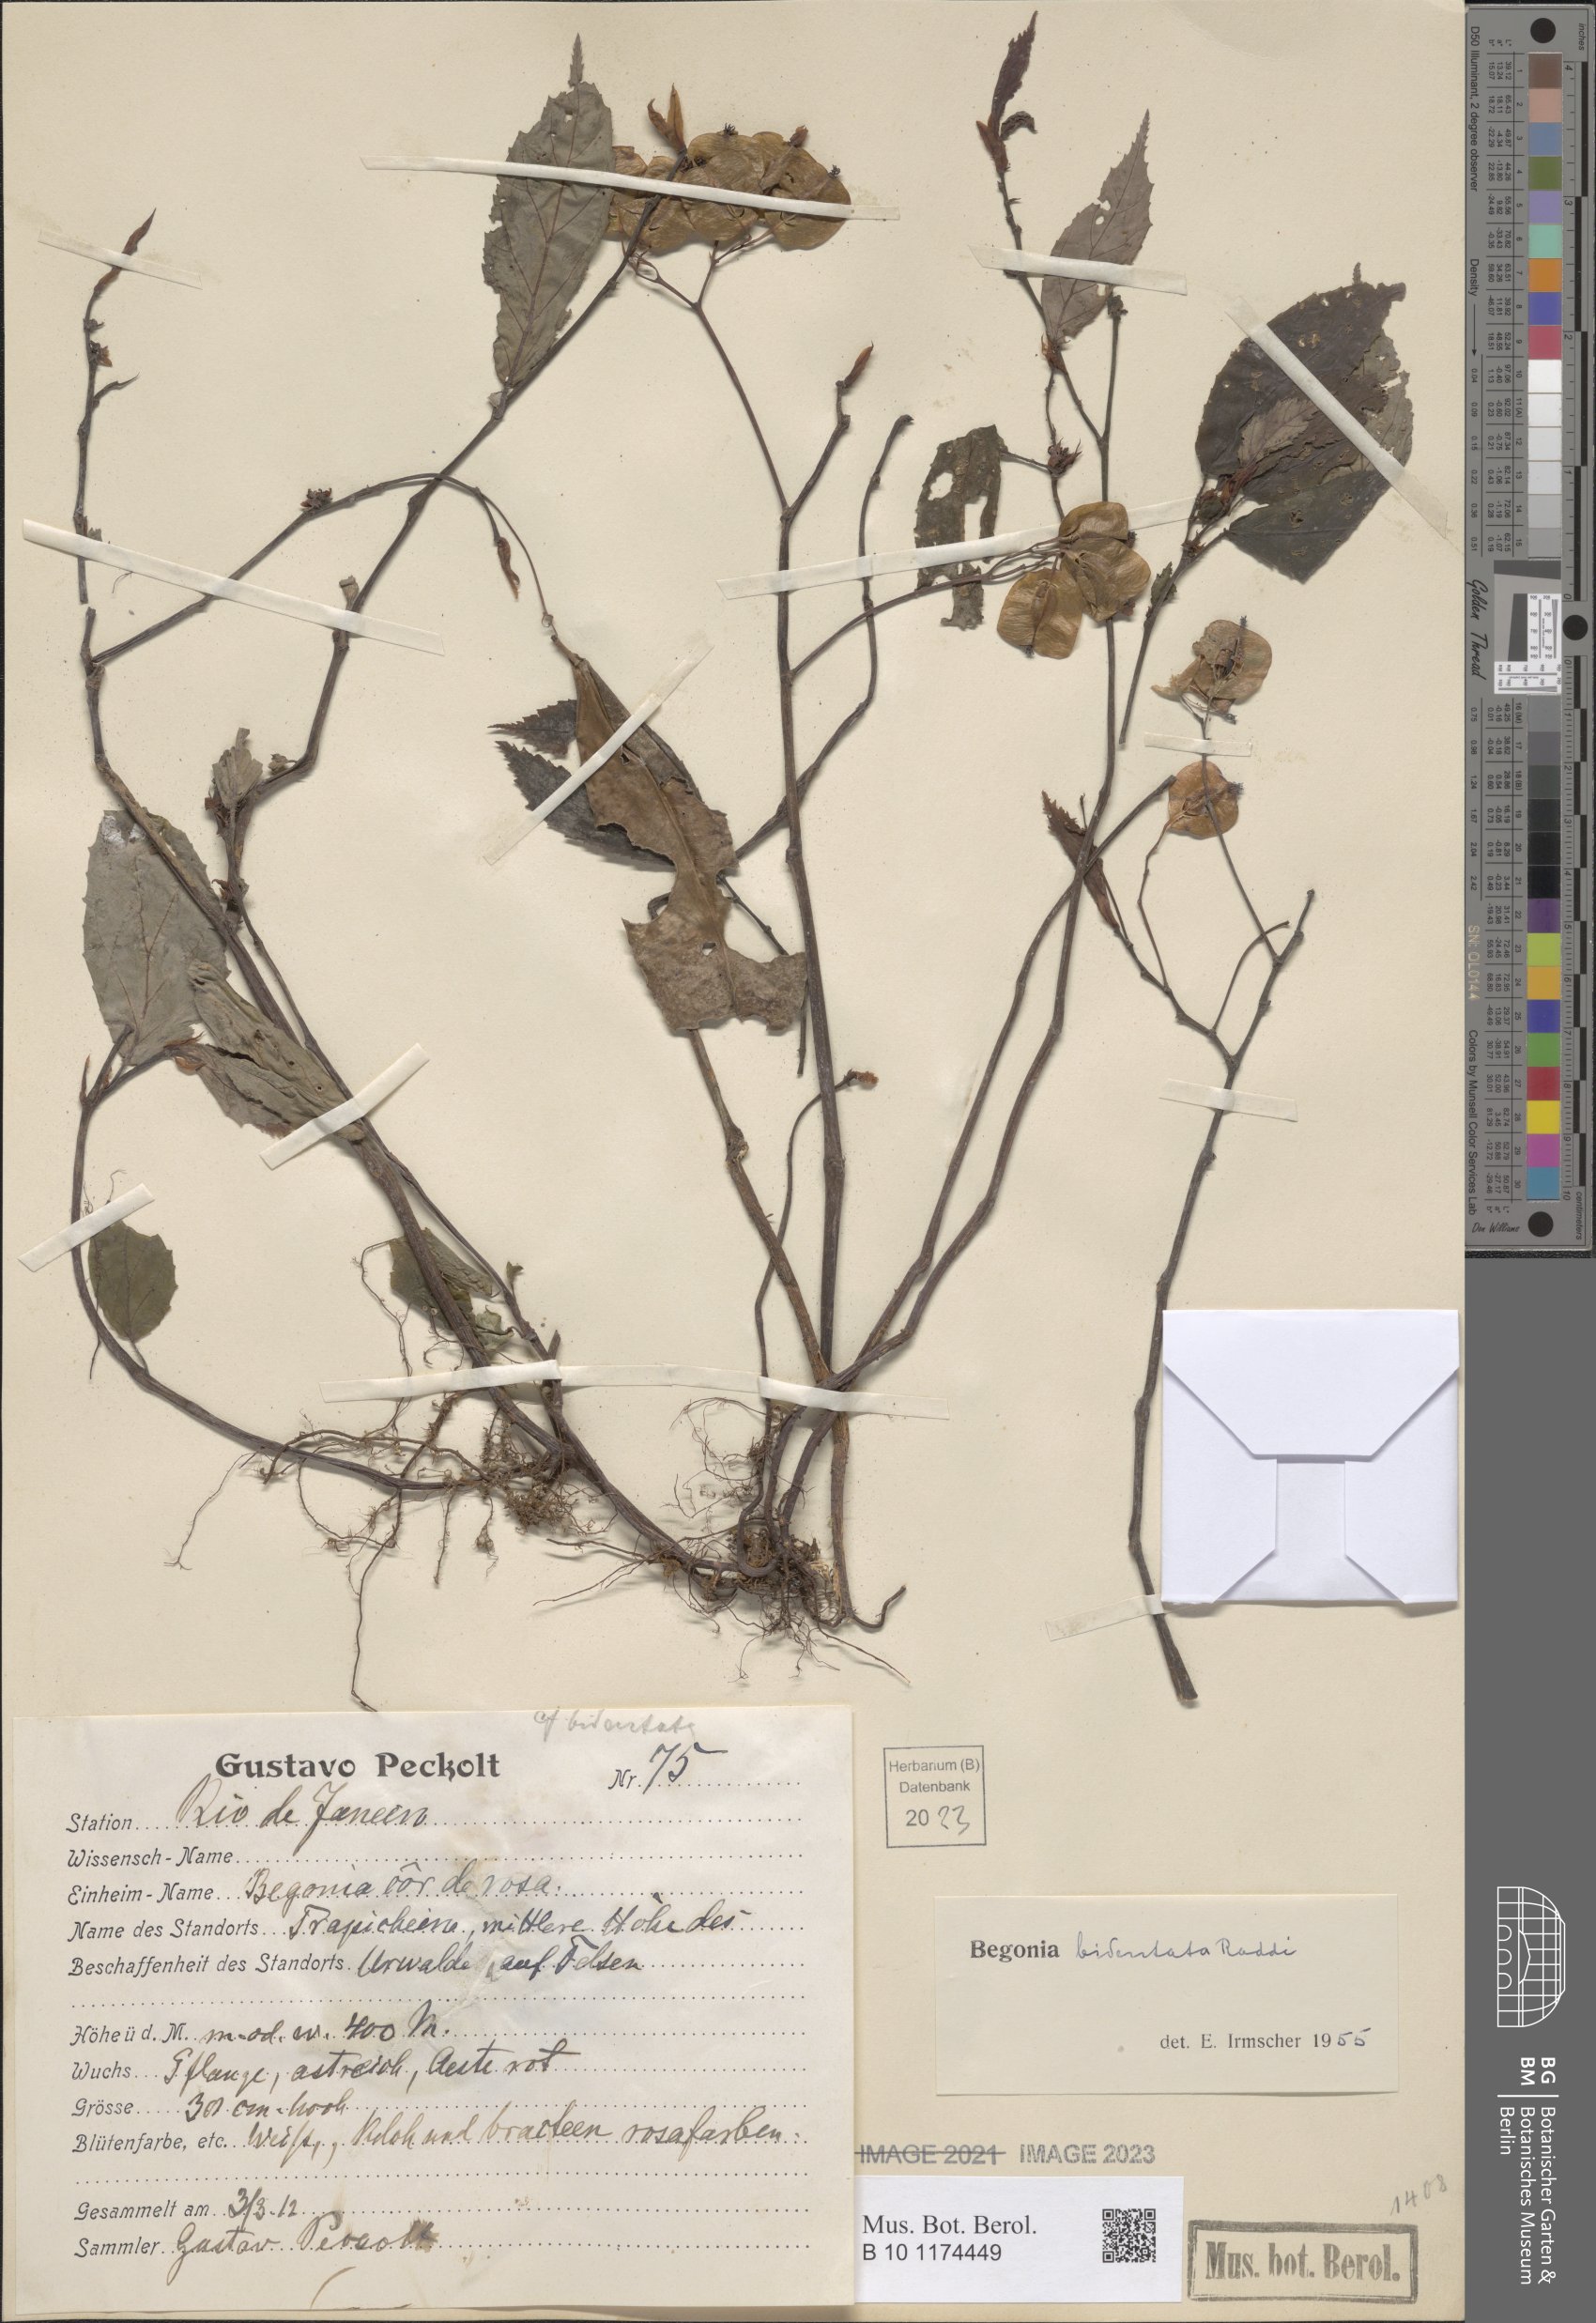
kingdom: Plantae
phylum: Tracheophyta
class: Magnoliopsida
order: Cucurbitales
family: Begoniaceae
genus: Begonia
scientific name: Begonia bidentata
